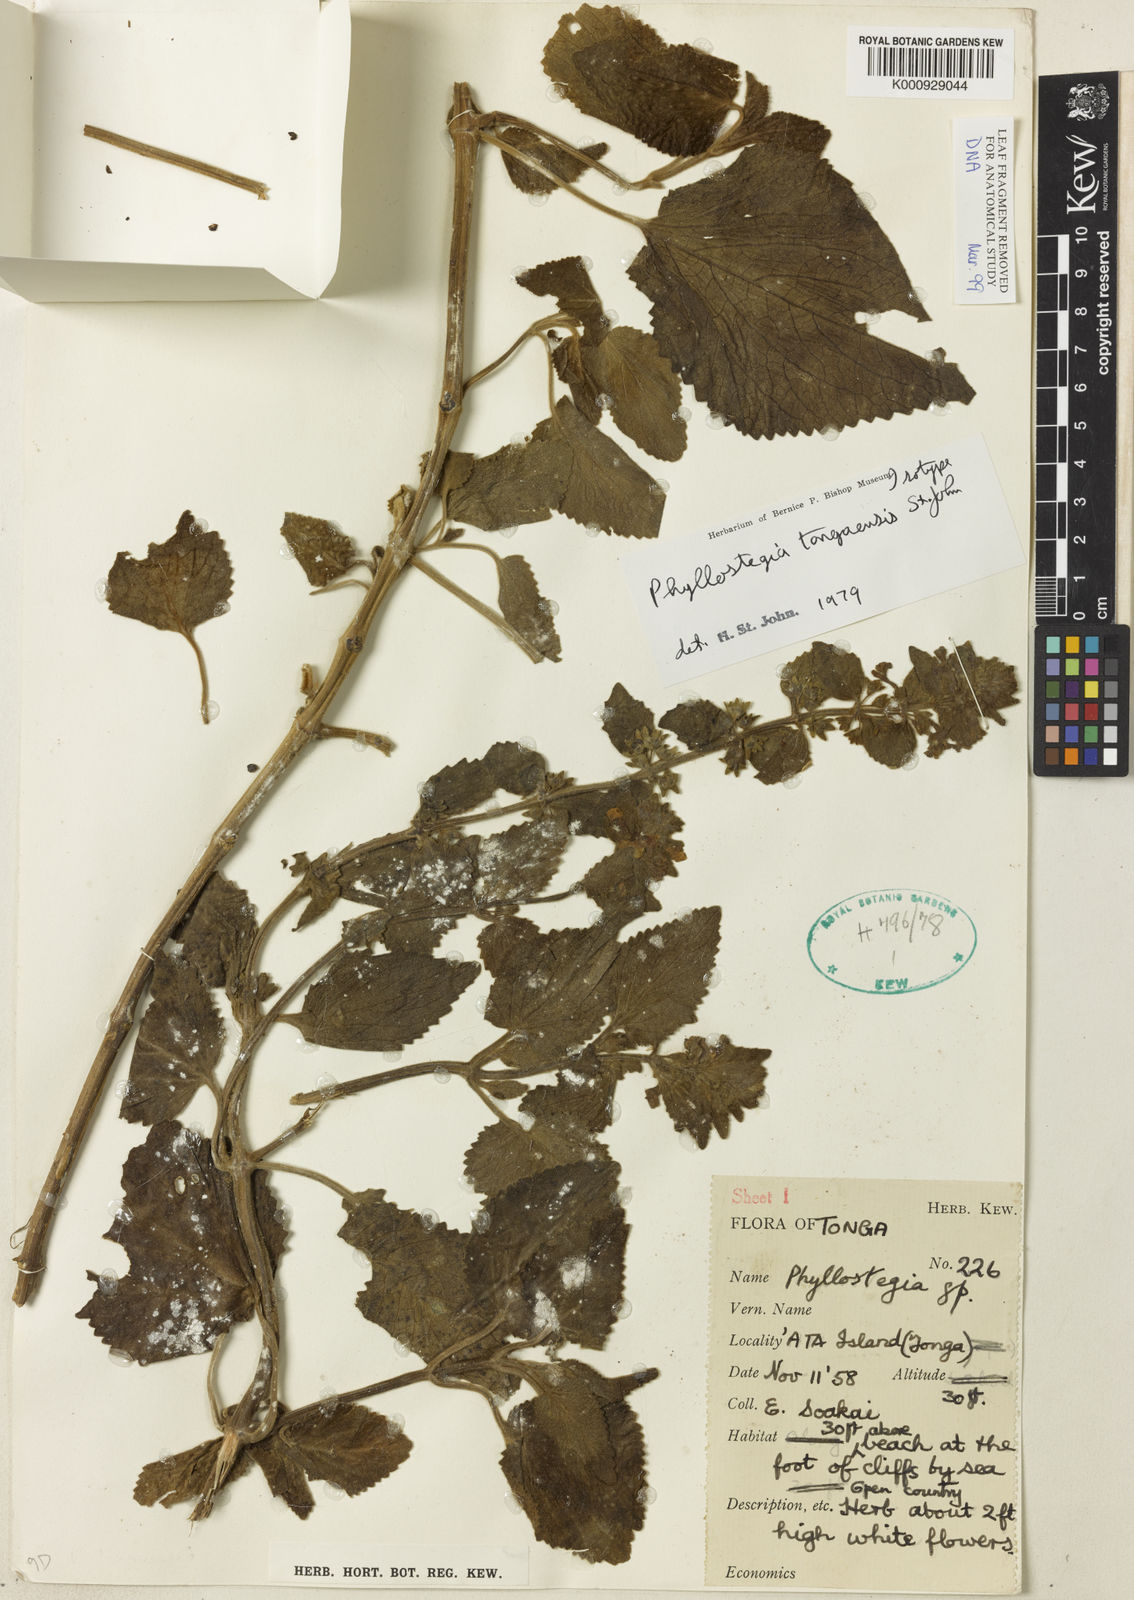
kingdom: Plantae
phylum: Tracheophyta
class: Magnoliopsida
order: Lamiales
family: Lamiaceae
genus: Phyllostegia
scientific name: Phyllostegia
